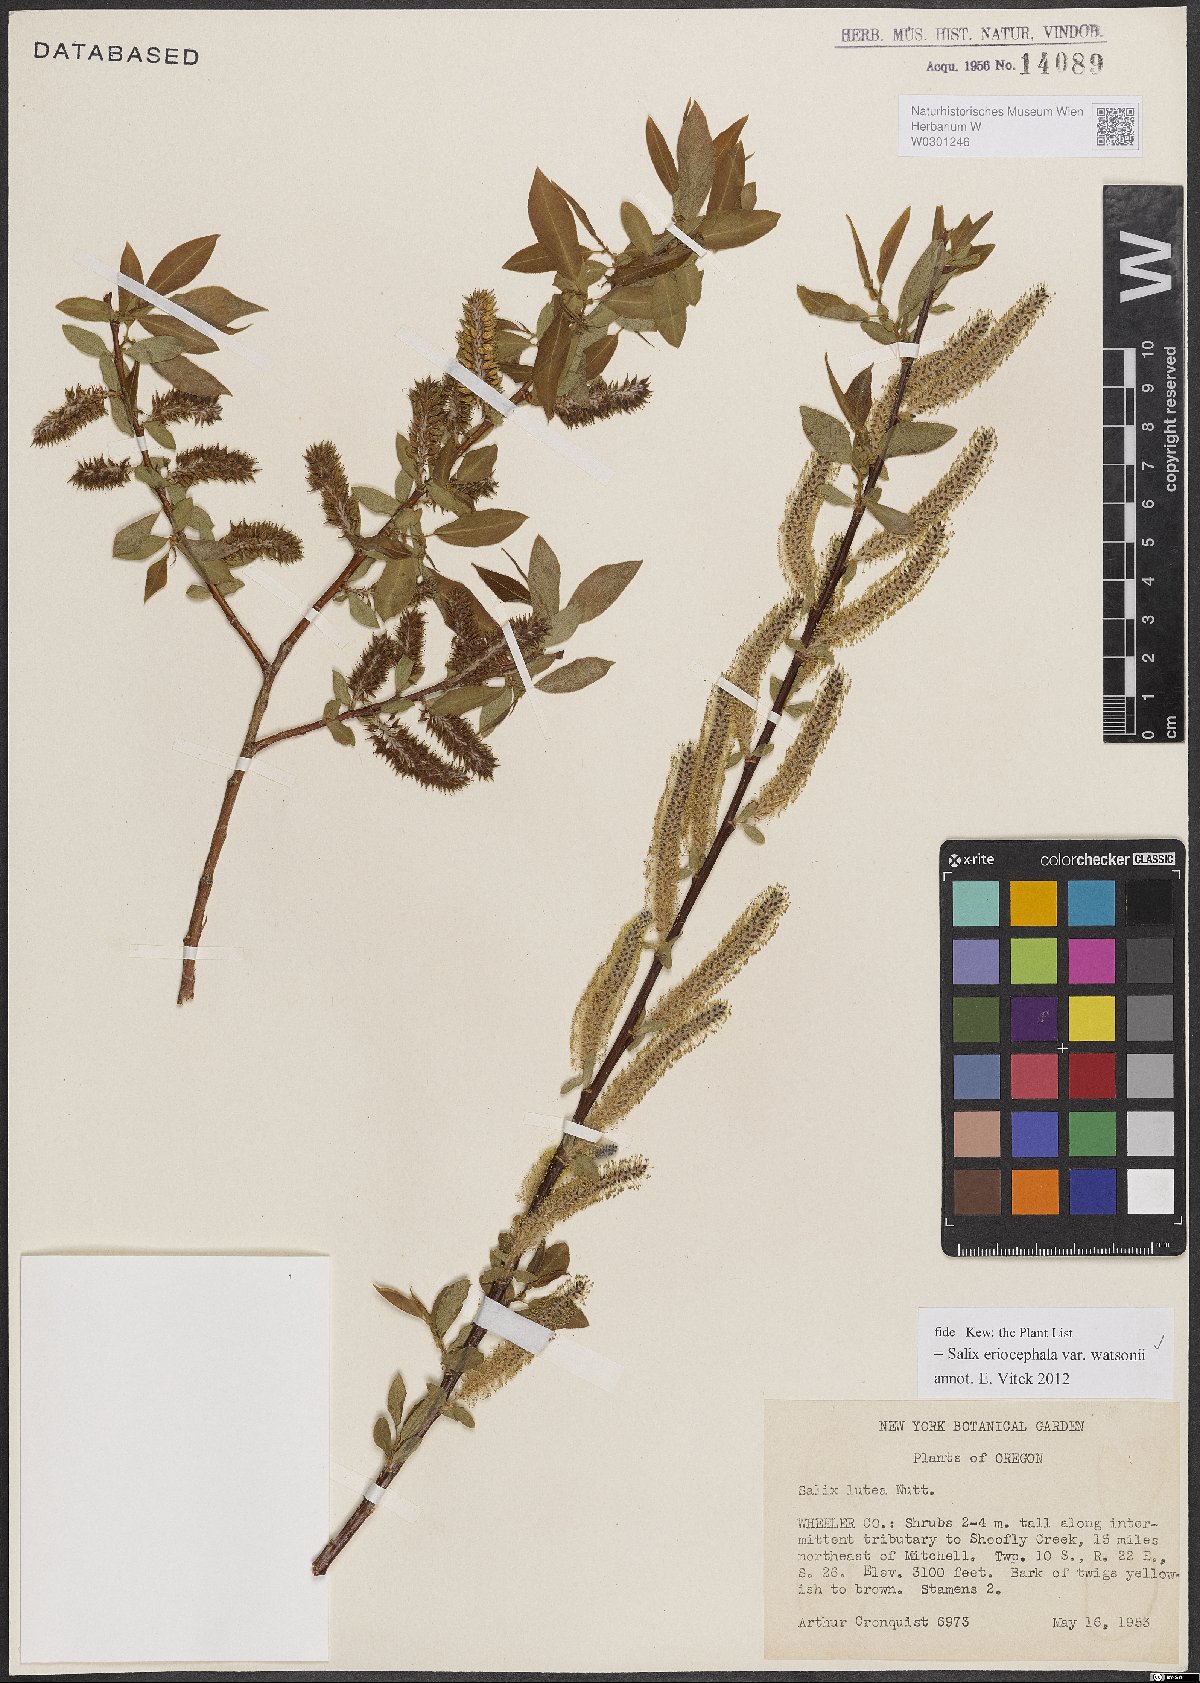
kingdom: Plantae
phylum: Tracheophyta
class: Magnoliopsida
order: Malpighiales
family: Salicaceae
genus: Salix
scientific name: Salix lutea
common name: Yellow willow
